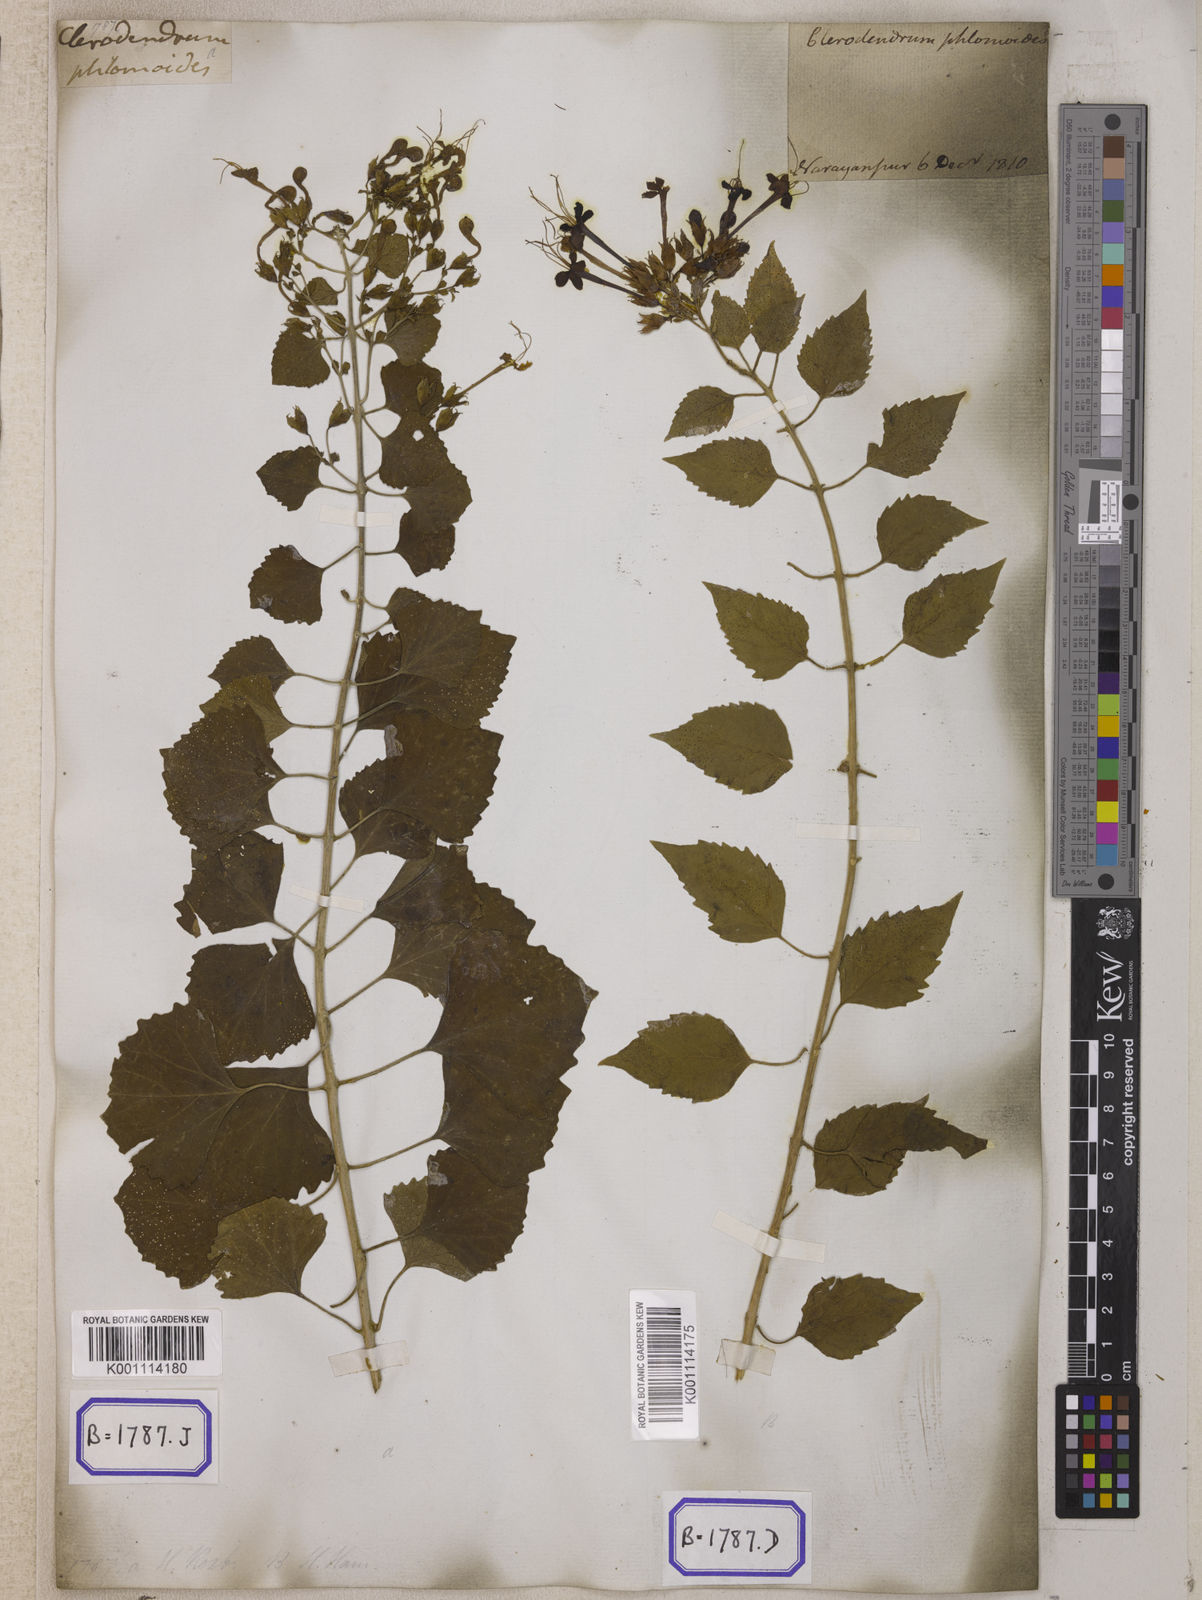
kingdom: Plantae
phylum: Tracheophyta
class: Magnoliopsida
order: Lamiales
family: Lamiaceae
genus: Clerodendrum
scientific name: Clerodendrum
